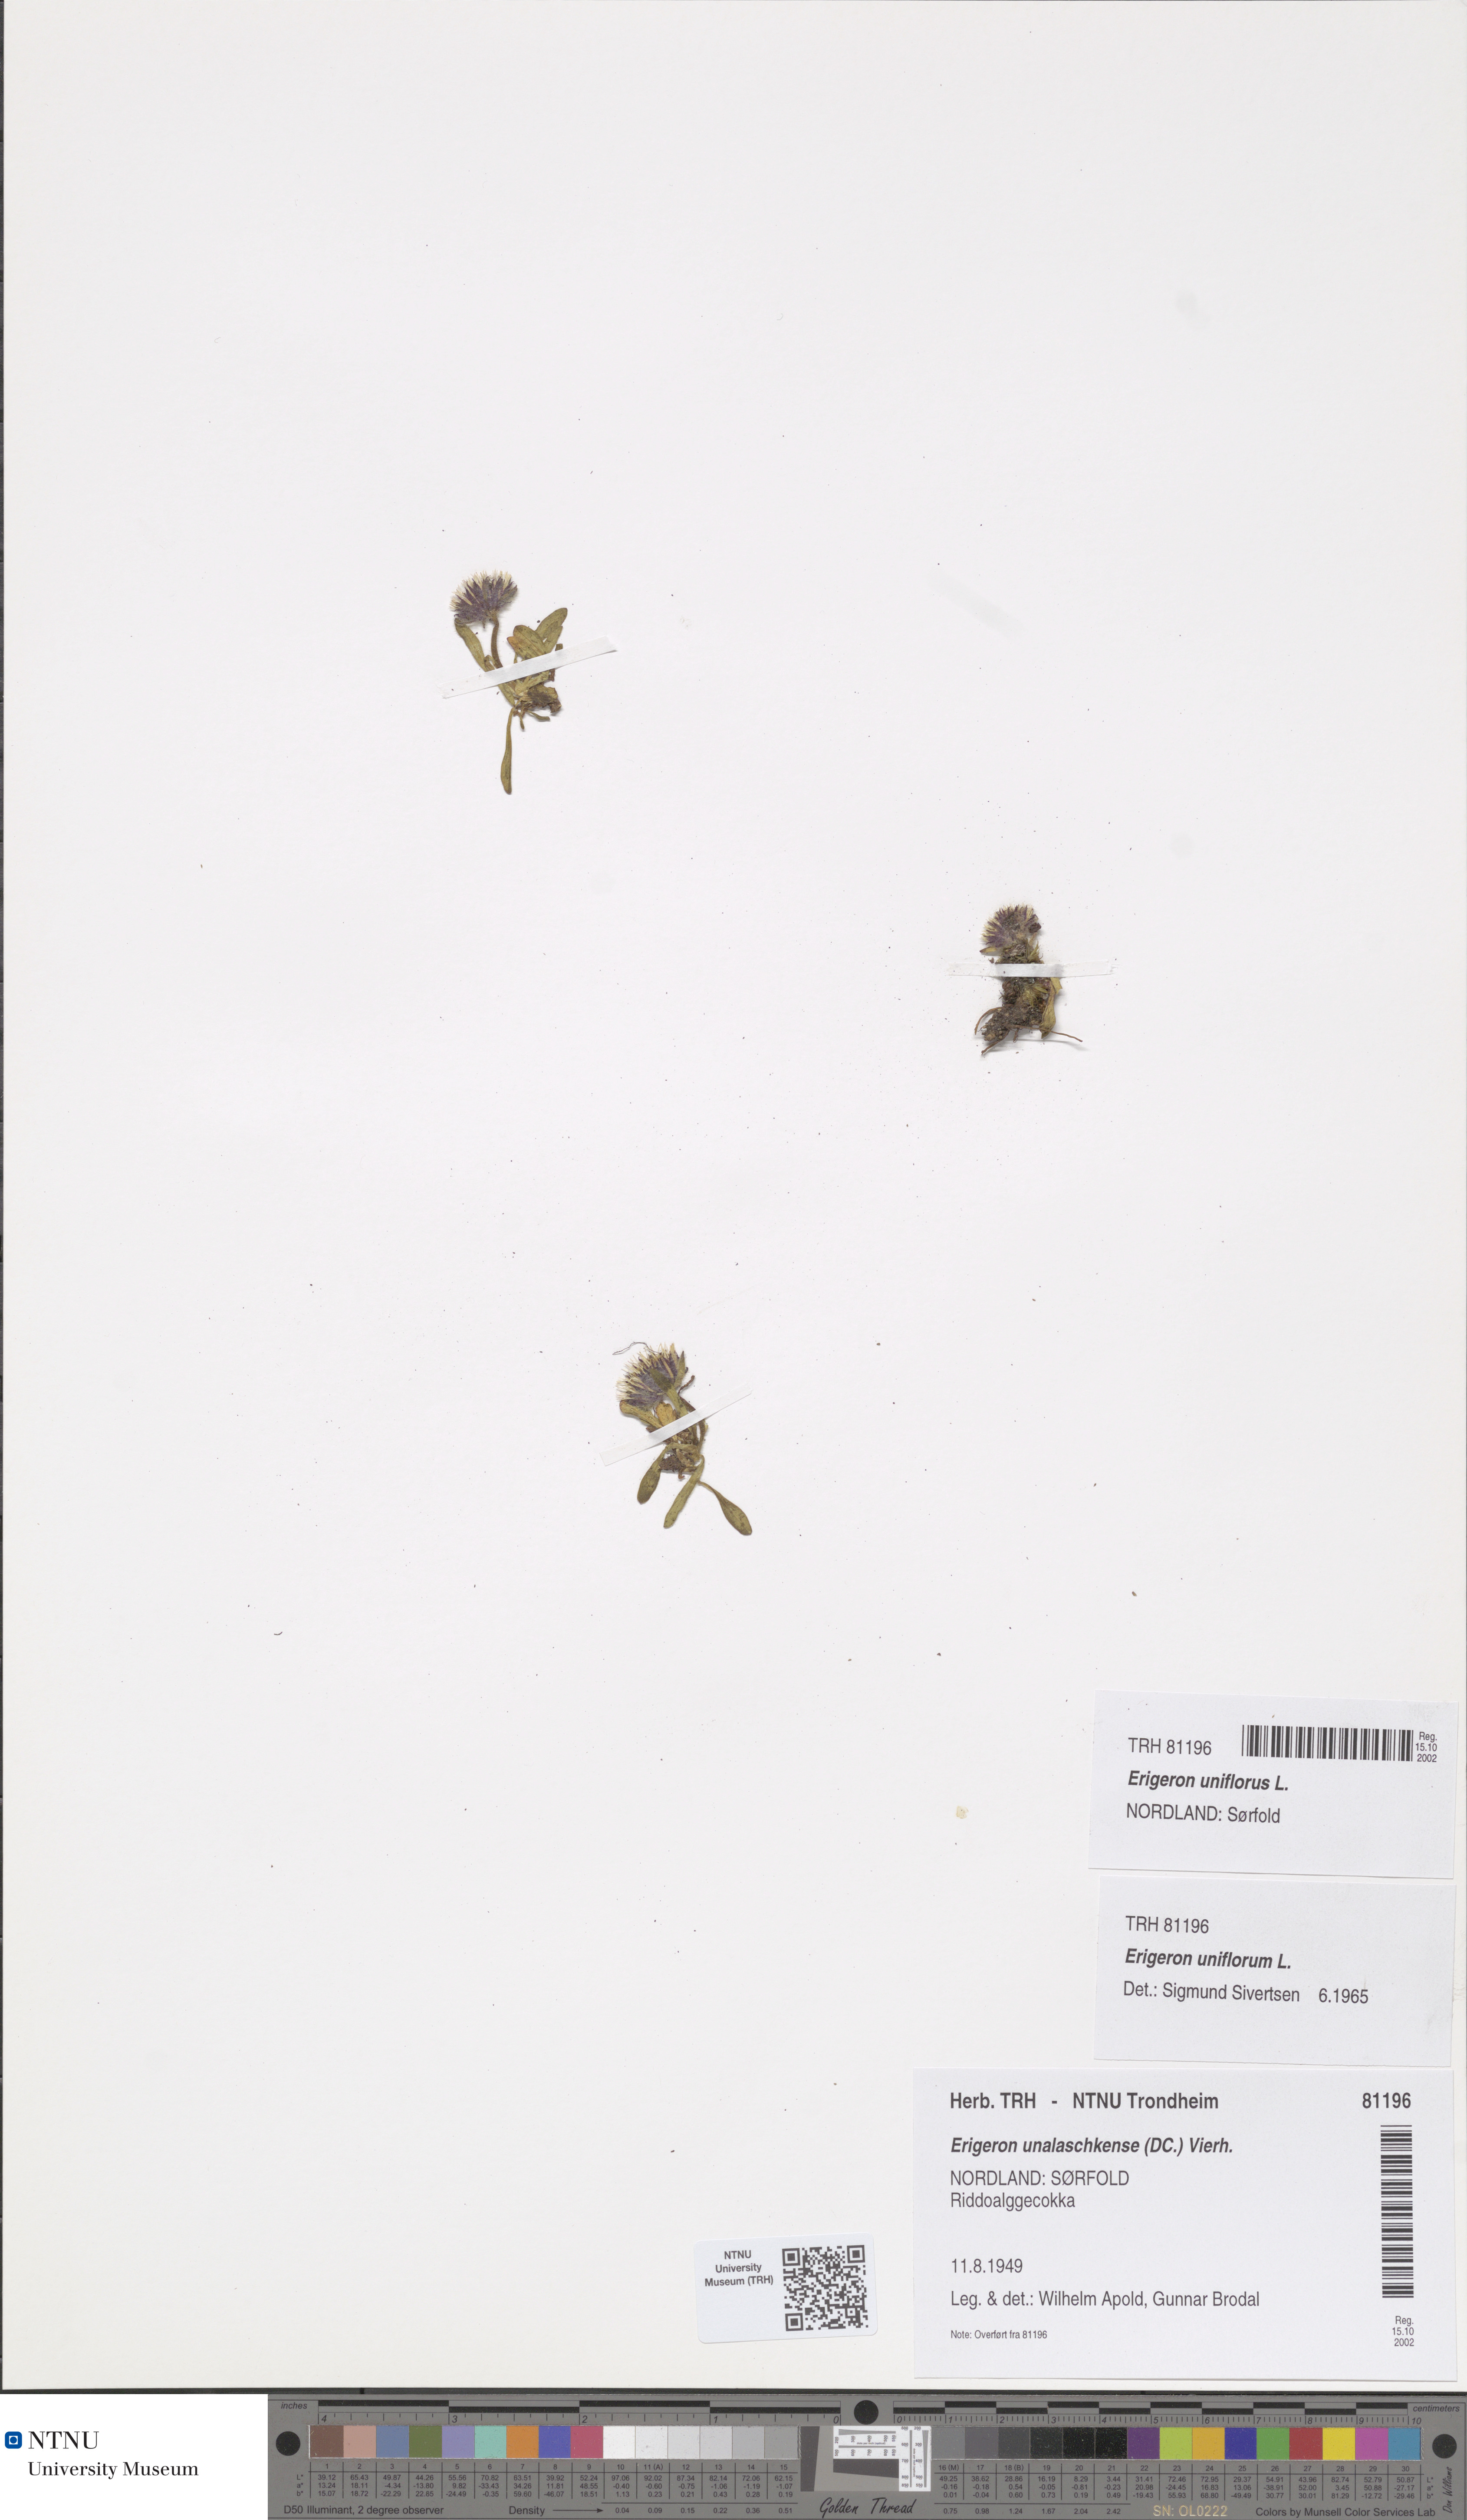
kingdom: Plantae
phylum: Tracheophyta
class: Magnoliopsida
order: Asterales
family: Asteraceae
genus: Erigeron
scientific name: Erigeron uniflorus
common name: Northern daisy
